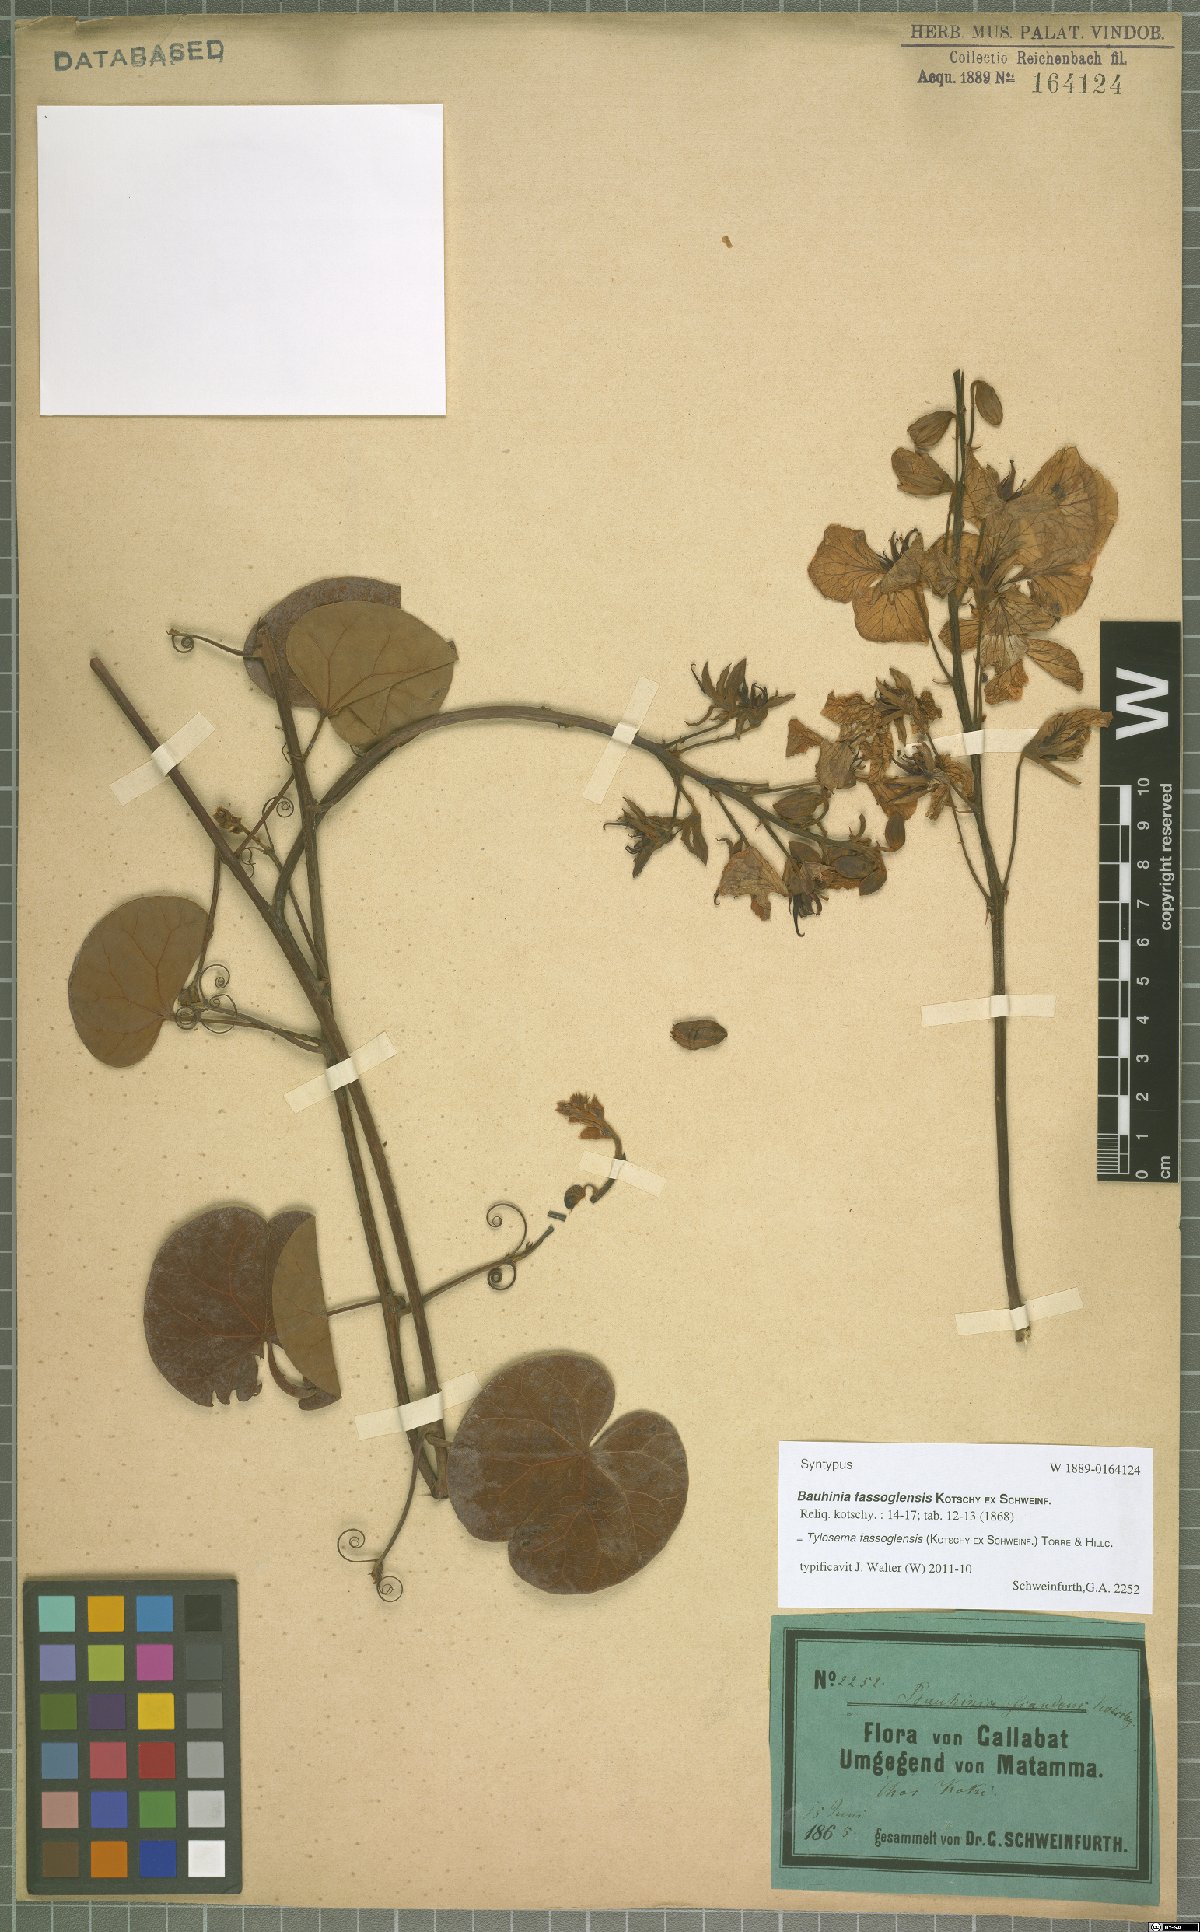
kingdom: Plantae
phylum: Tracheophyta
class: Magnoliopsida
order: Fabales
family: Fabaceae
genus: Tylosema
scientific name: Tylosema fassoglense
